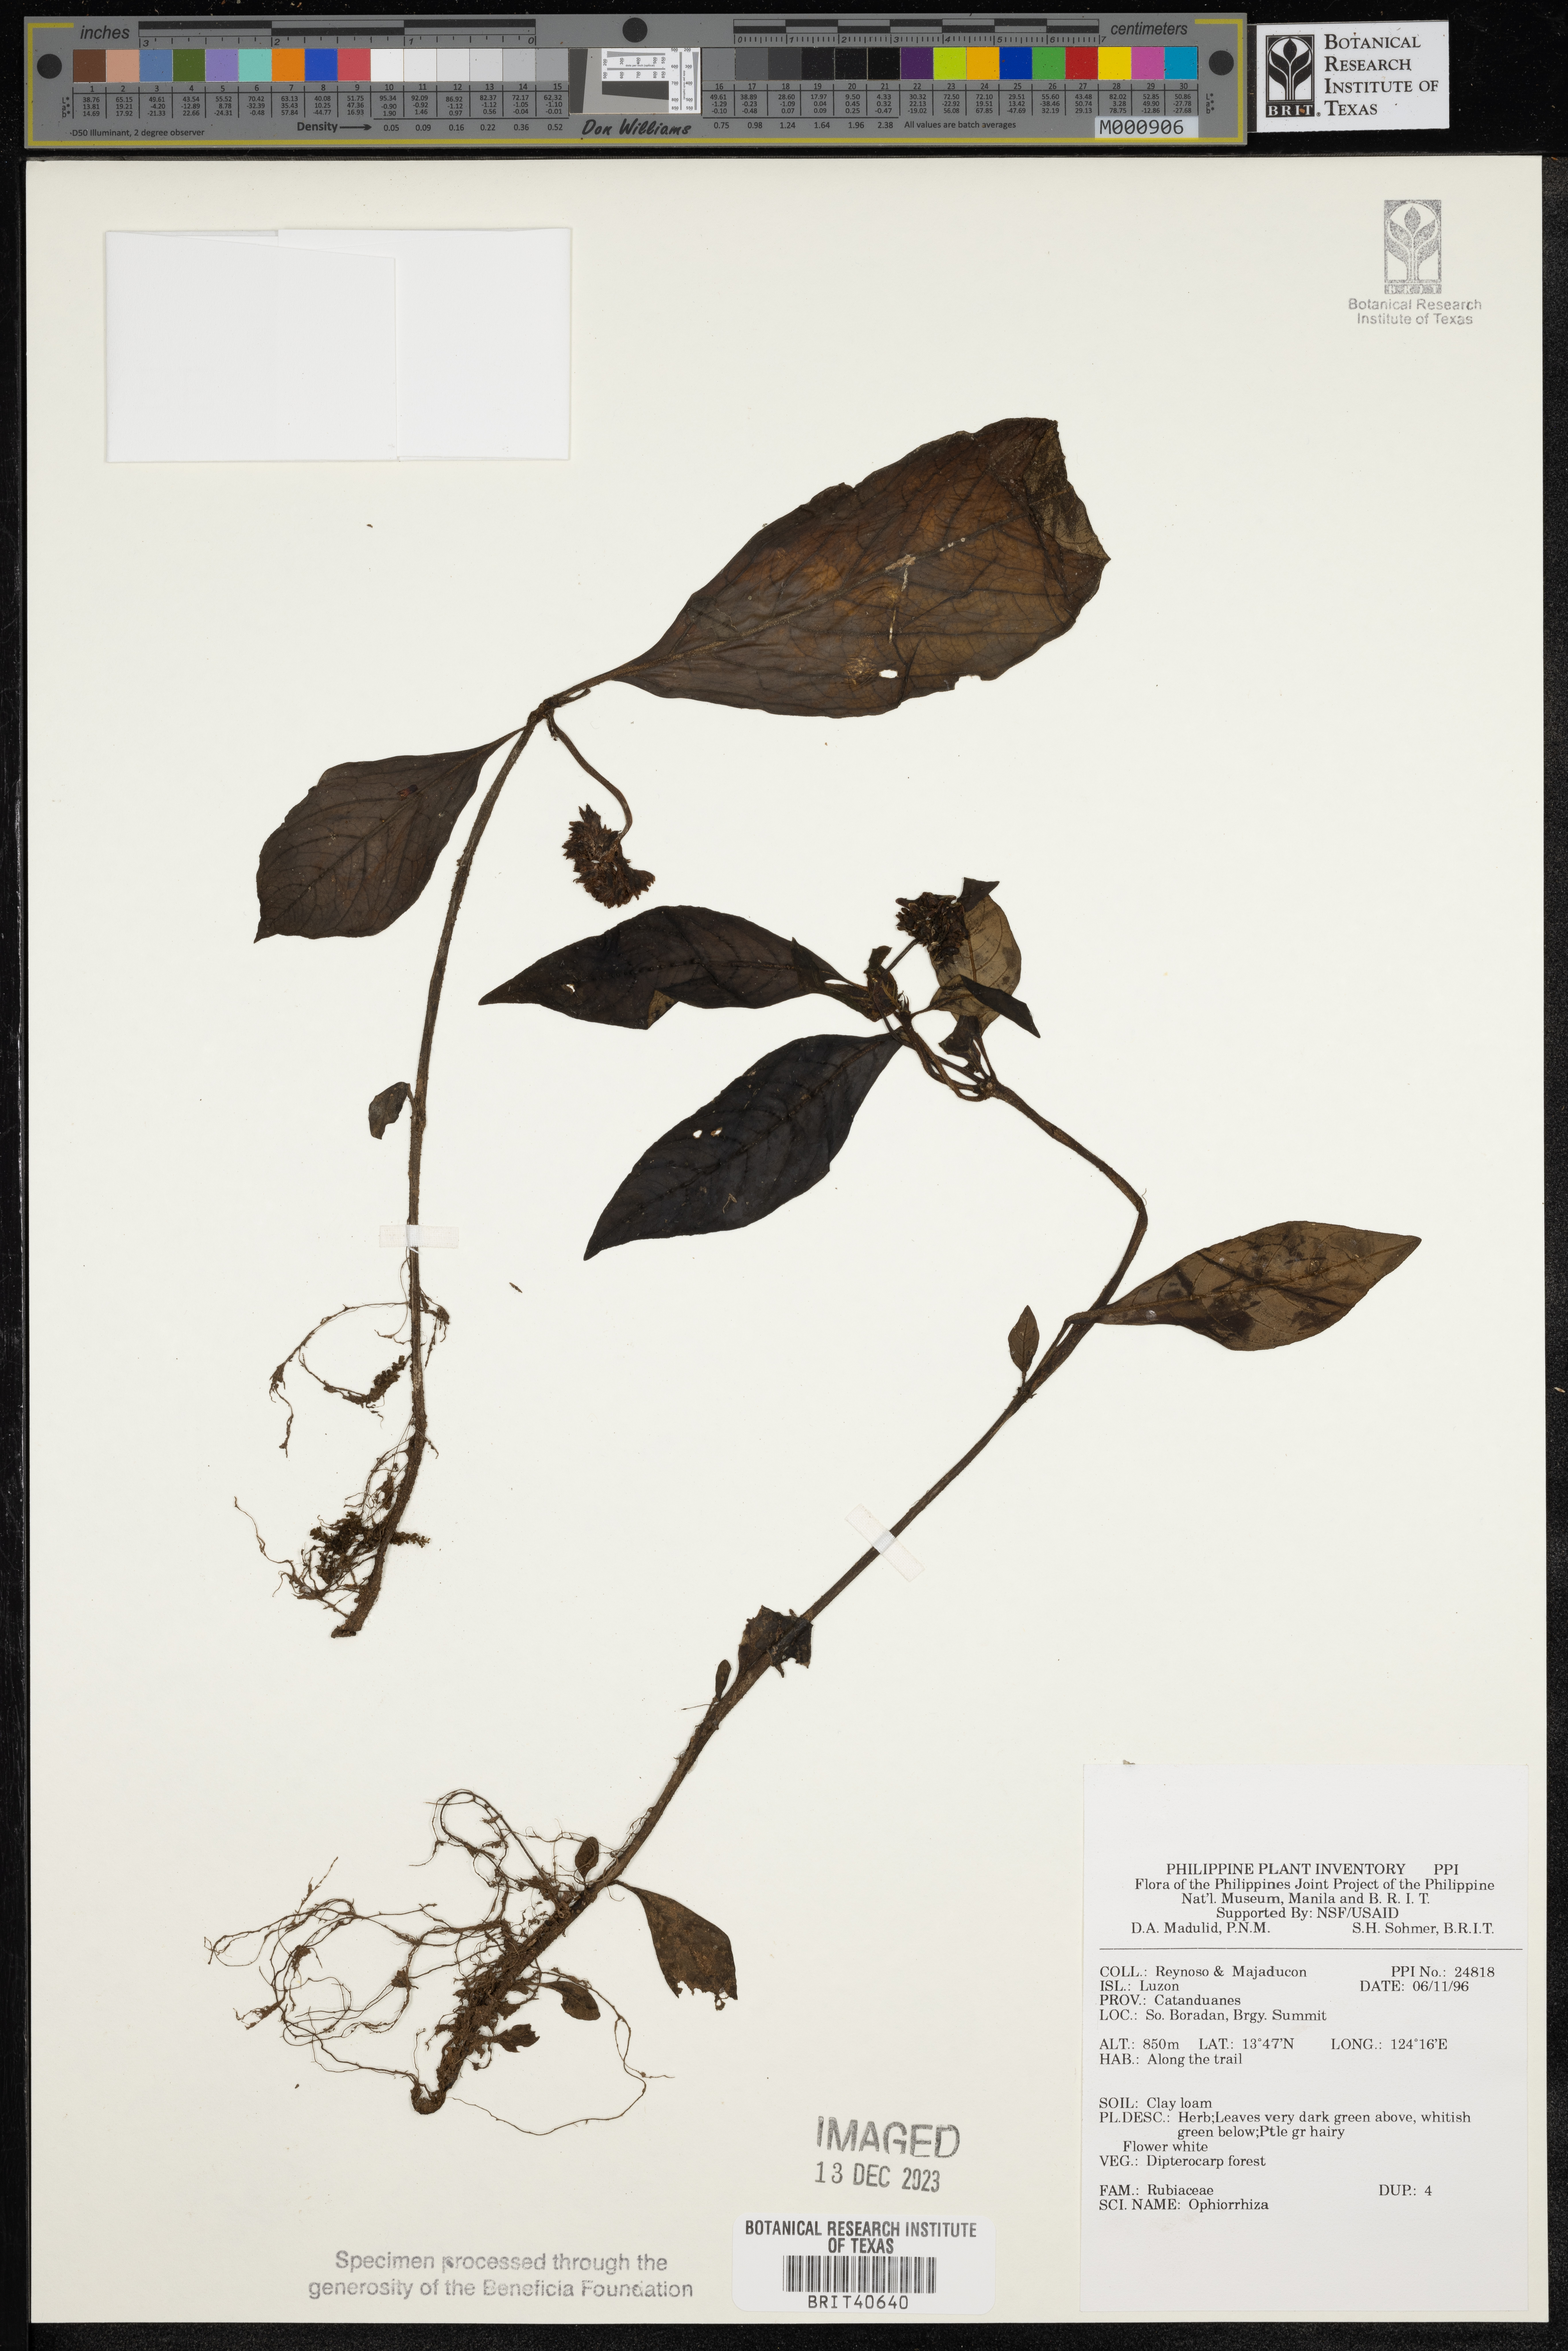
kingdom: Plantae
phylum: Tracheophyta
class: Magnoliopsida
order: Gentianales
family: Rubiaceae
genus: Ophiorrhiza
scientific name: Ophiorrhiza
